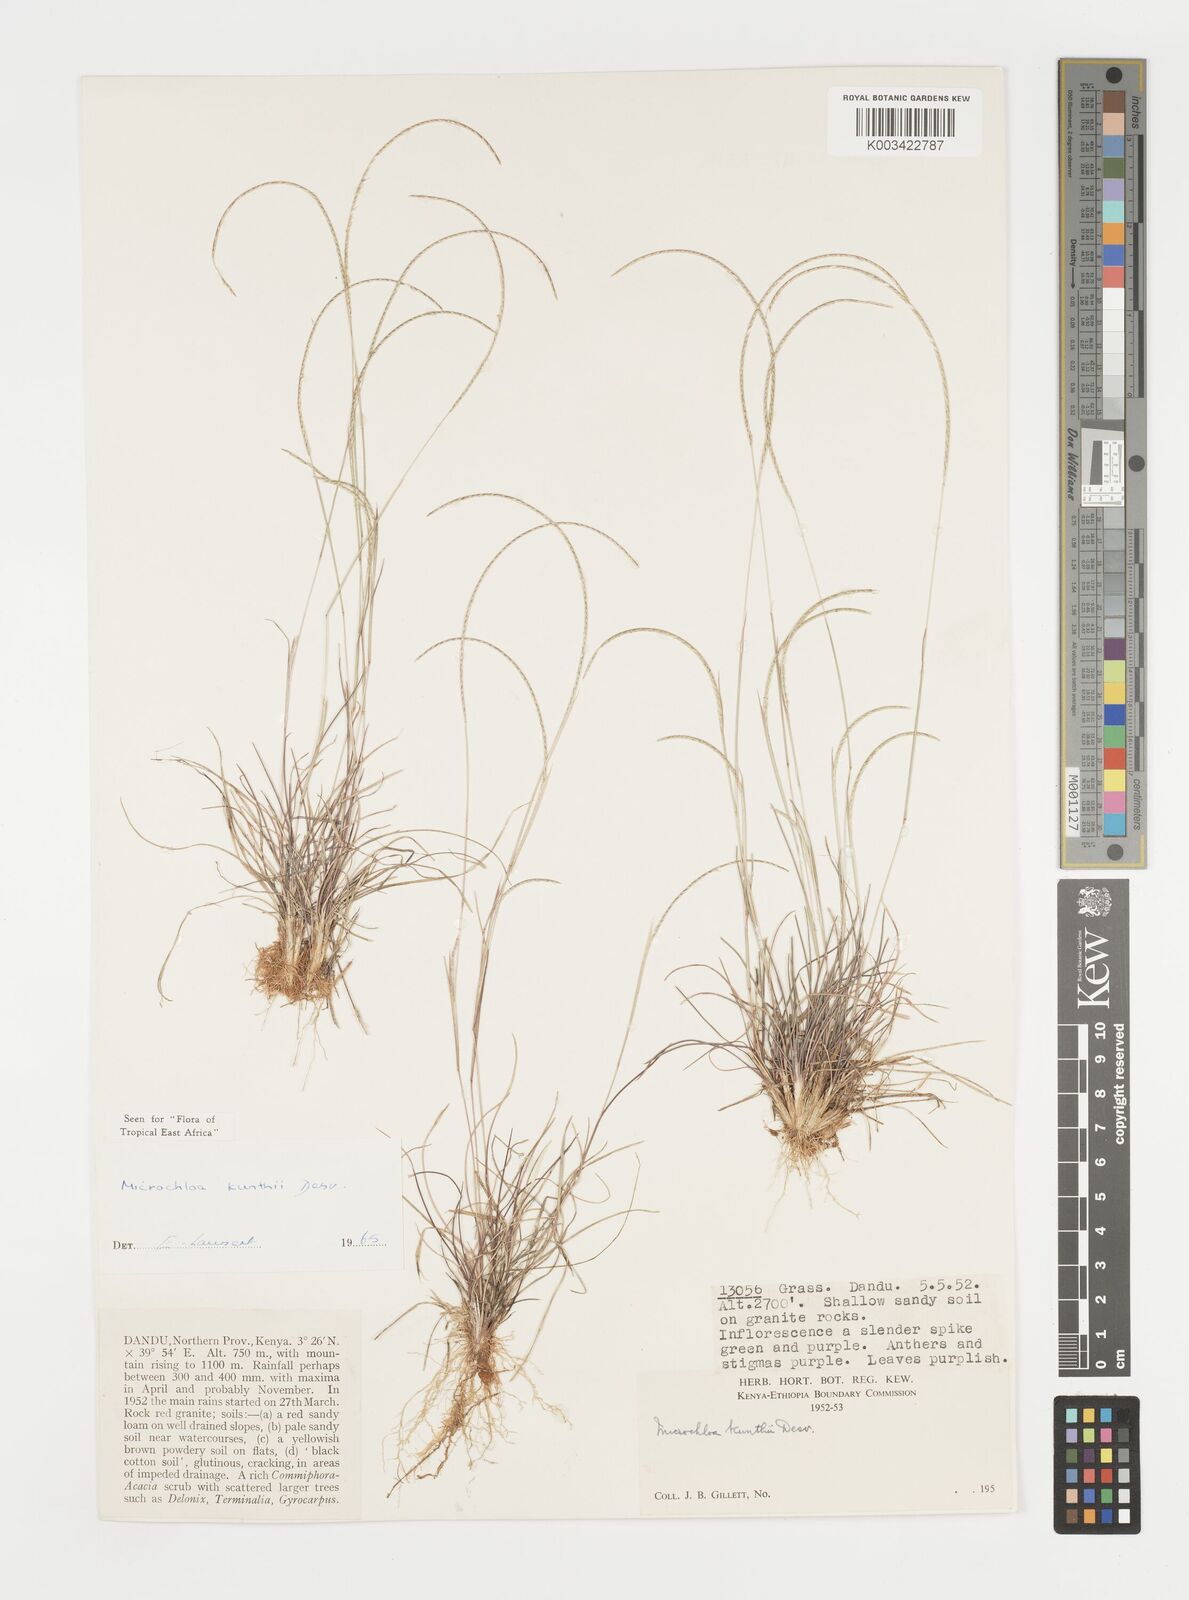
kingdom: Plantae
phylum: Tracheophyta
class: Liliopsida
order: Poales
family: Poaceae
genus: Microchloa
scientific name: Microchloa kunthii
